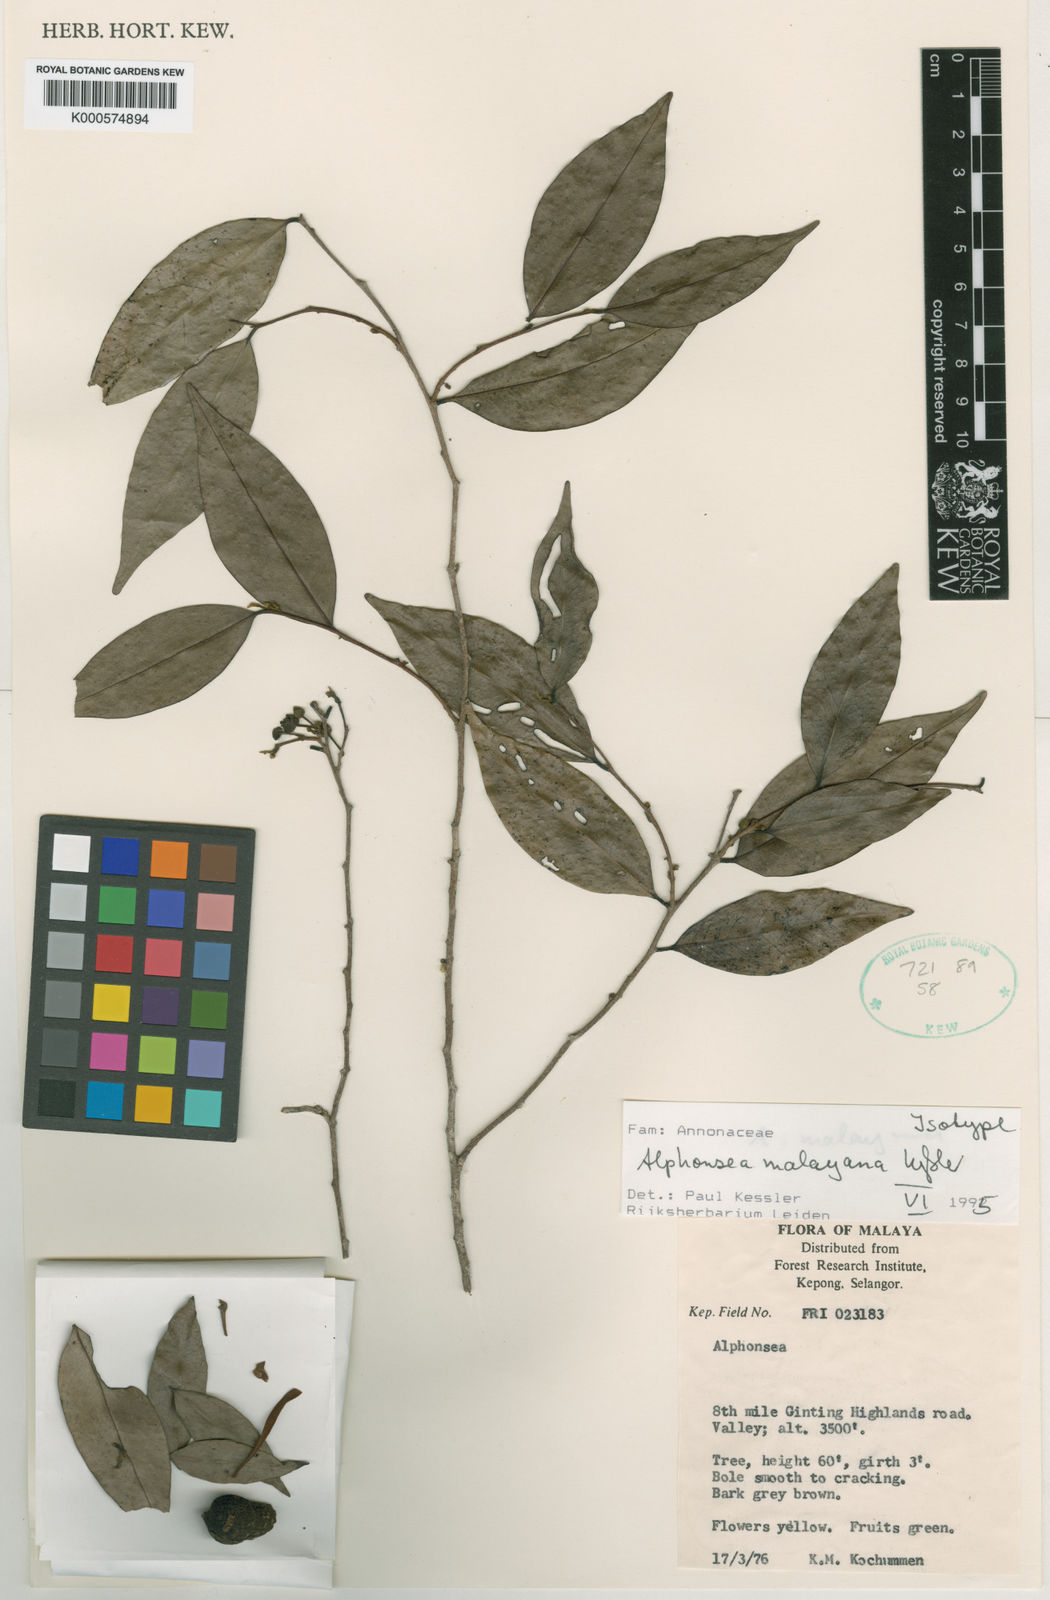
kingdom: Plantae
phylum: Tracheophyta
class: Magnoliopsida
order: Magnoliales
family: Annonaceae
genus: Alphonsea
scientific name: Alphonsea malayana
